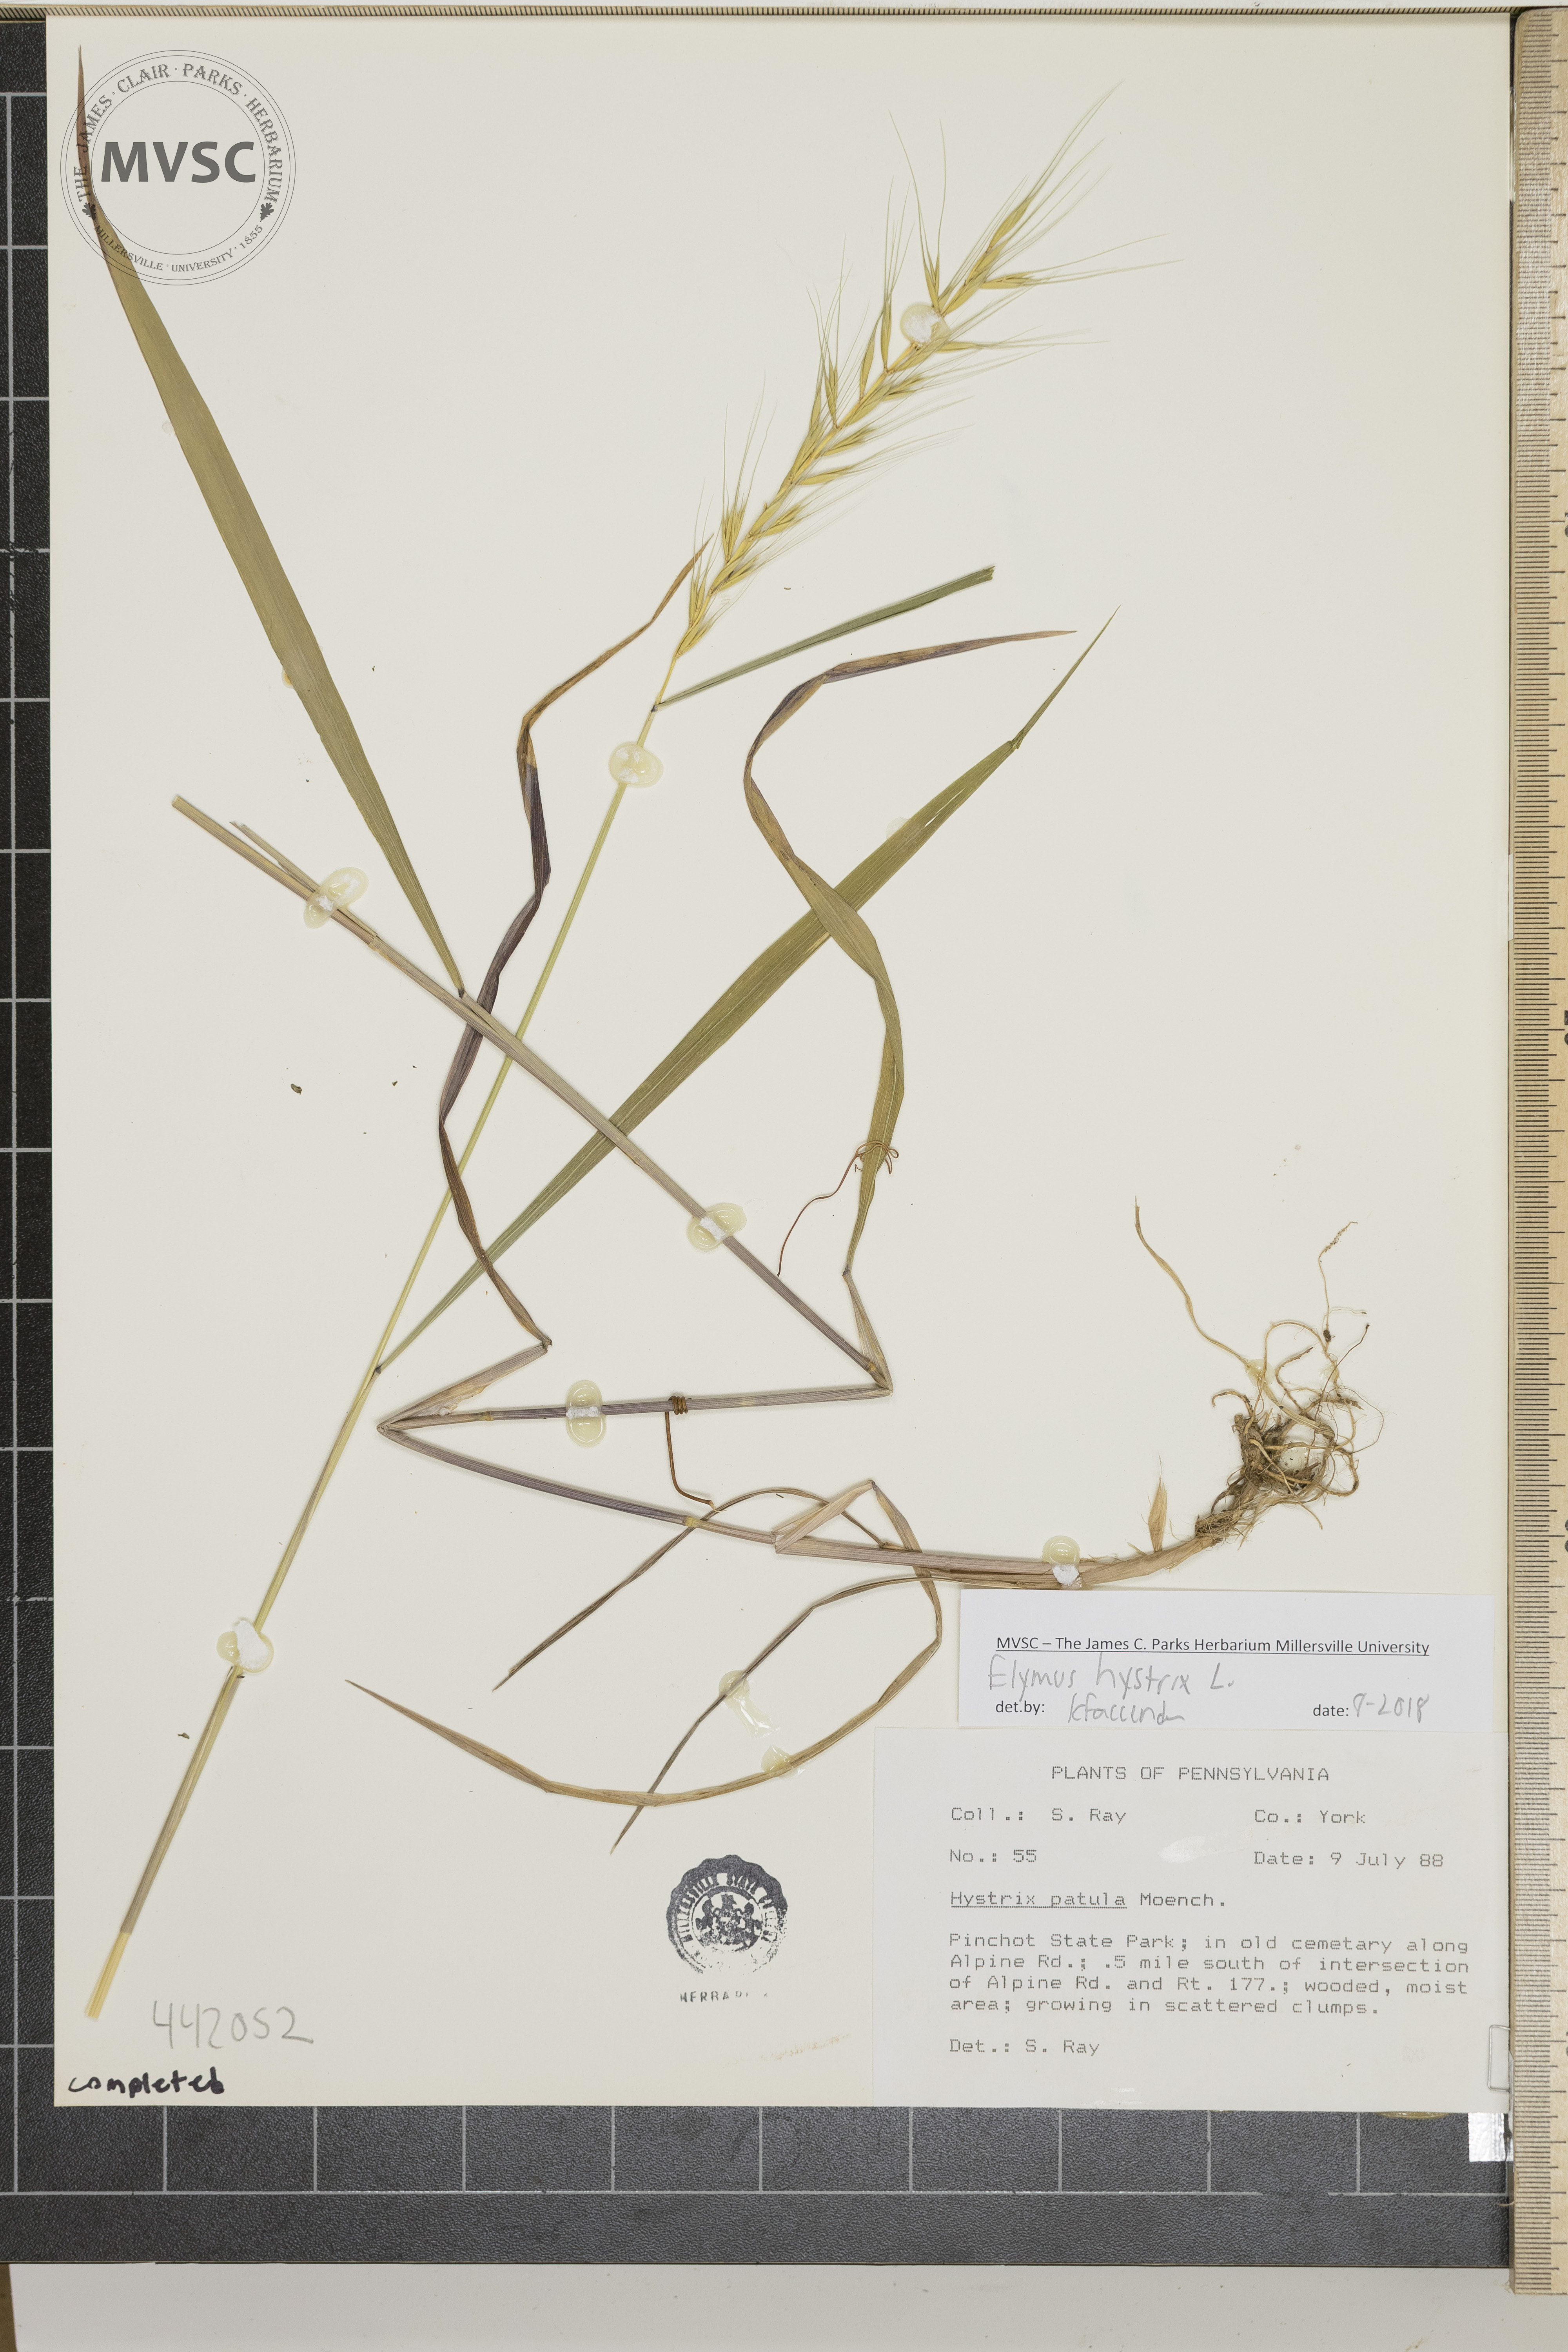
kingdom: Plantae
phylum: Tracheophyta
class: Liliopsida
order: Poales
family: Poaceae
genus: Elymus
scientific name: Elymus hystrix
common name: Bottlebrush grass
